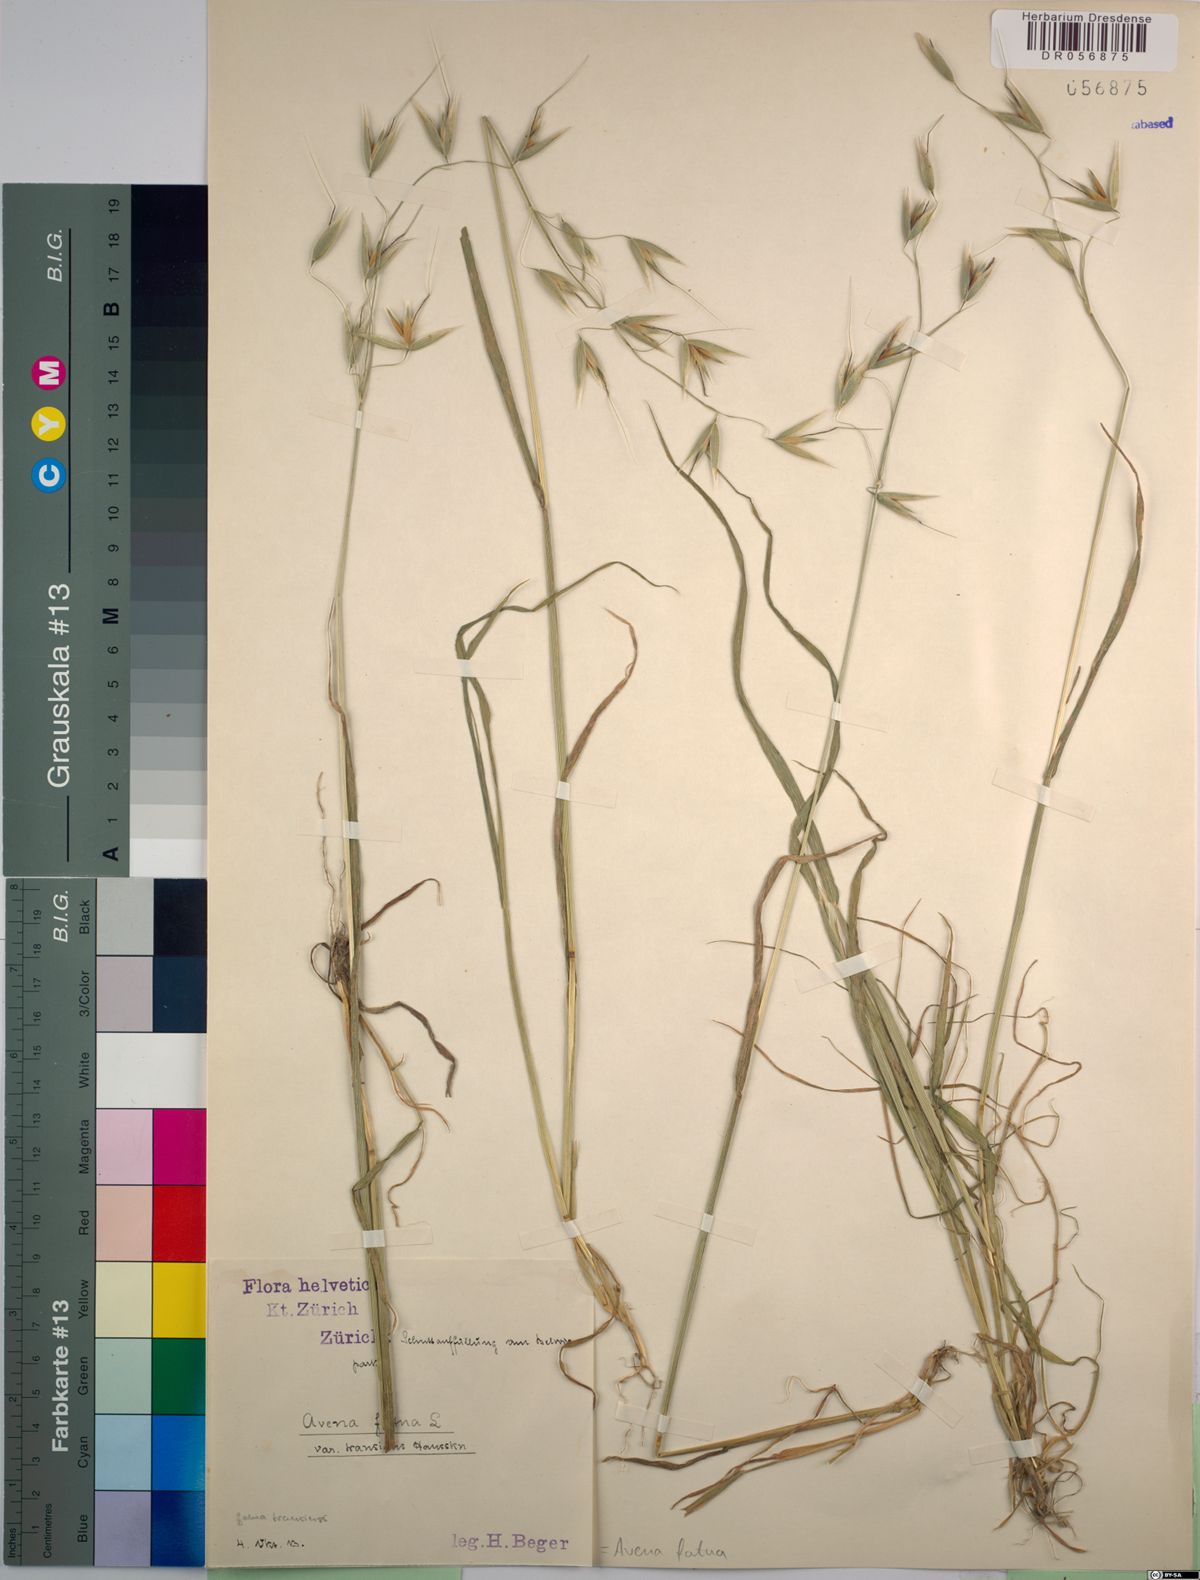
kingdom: Plantae
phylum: Tracheophyta
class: Liliopsida
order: Poales
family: Poaceae
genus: Avena
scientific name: Avena fatua
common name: Wild oat
